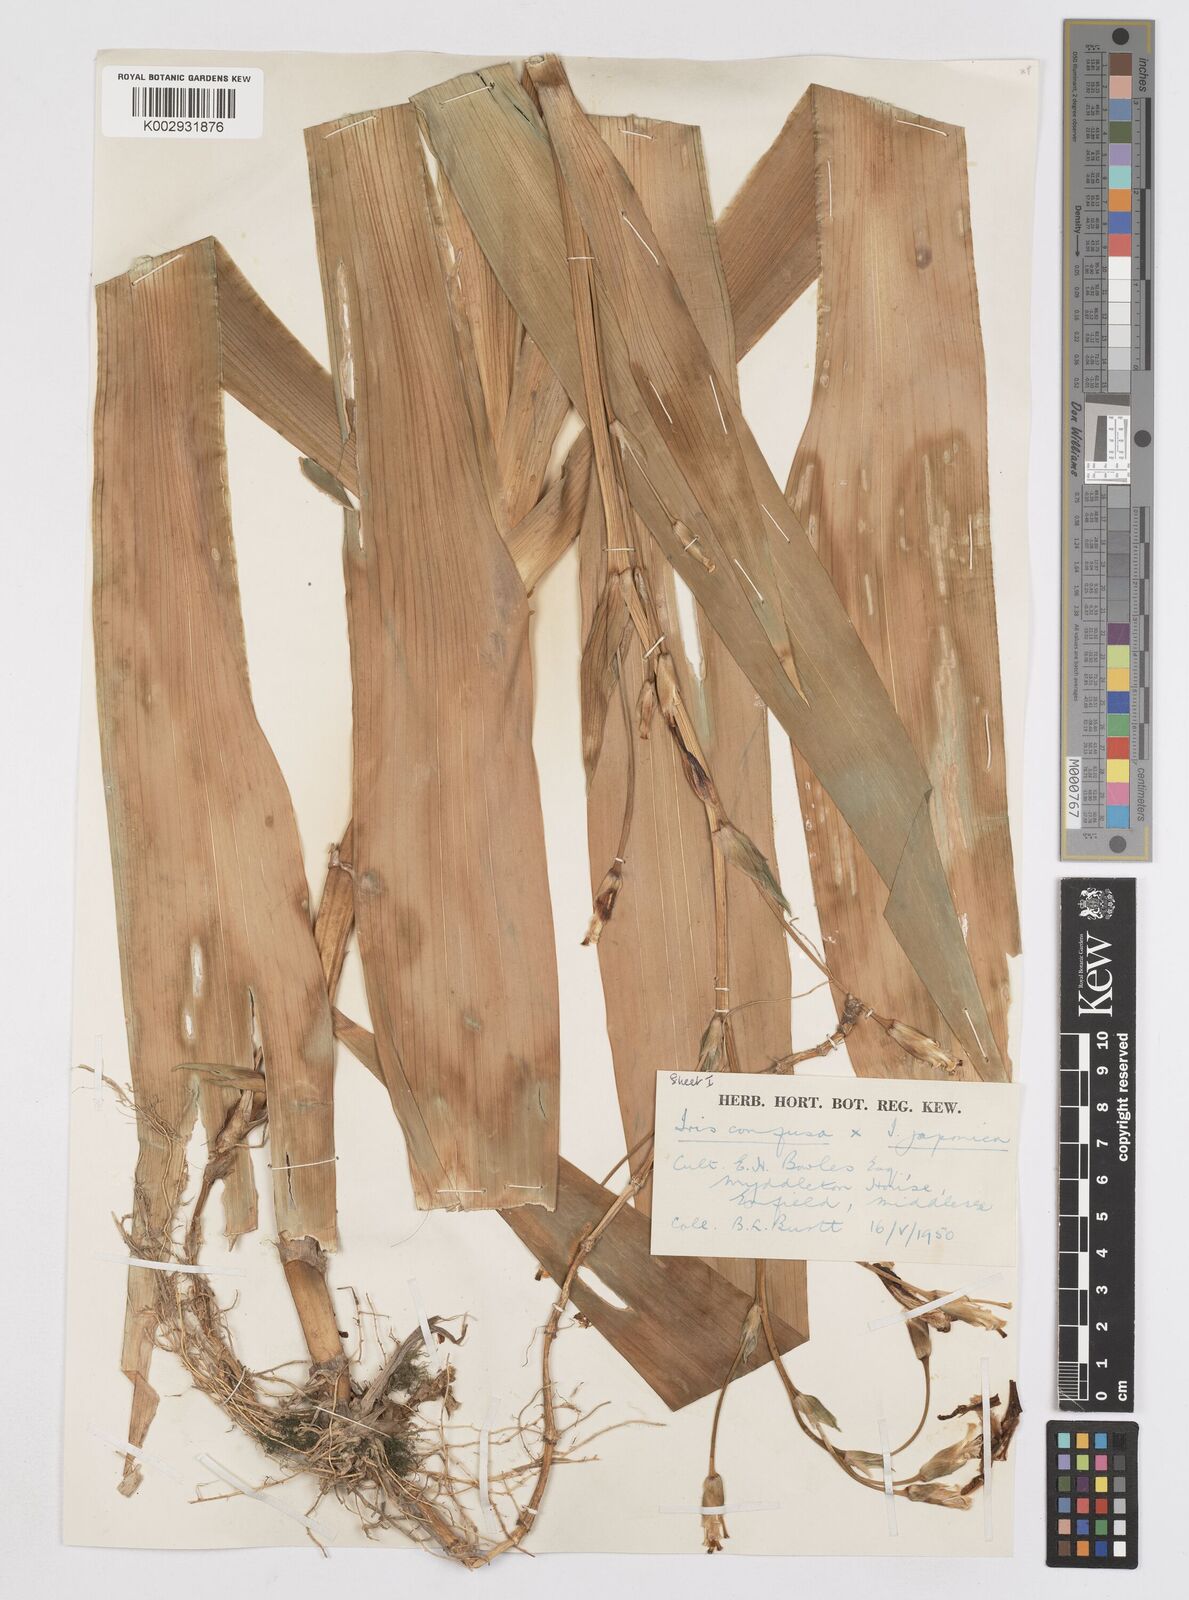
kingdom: Plantae
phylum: Tracheophyta
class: Liliopsida
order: Asparagales
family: Iridaceae
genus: Iris
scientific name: Iris confusa
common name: Flat bamboo-orchid
